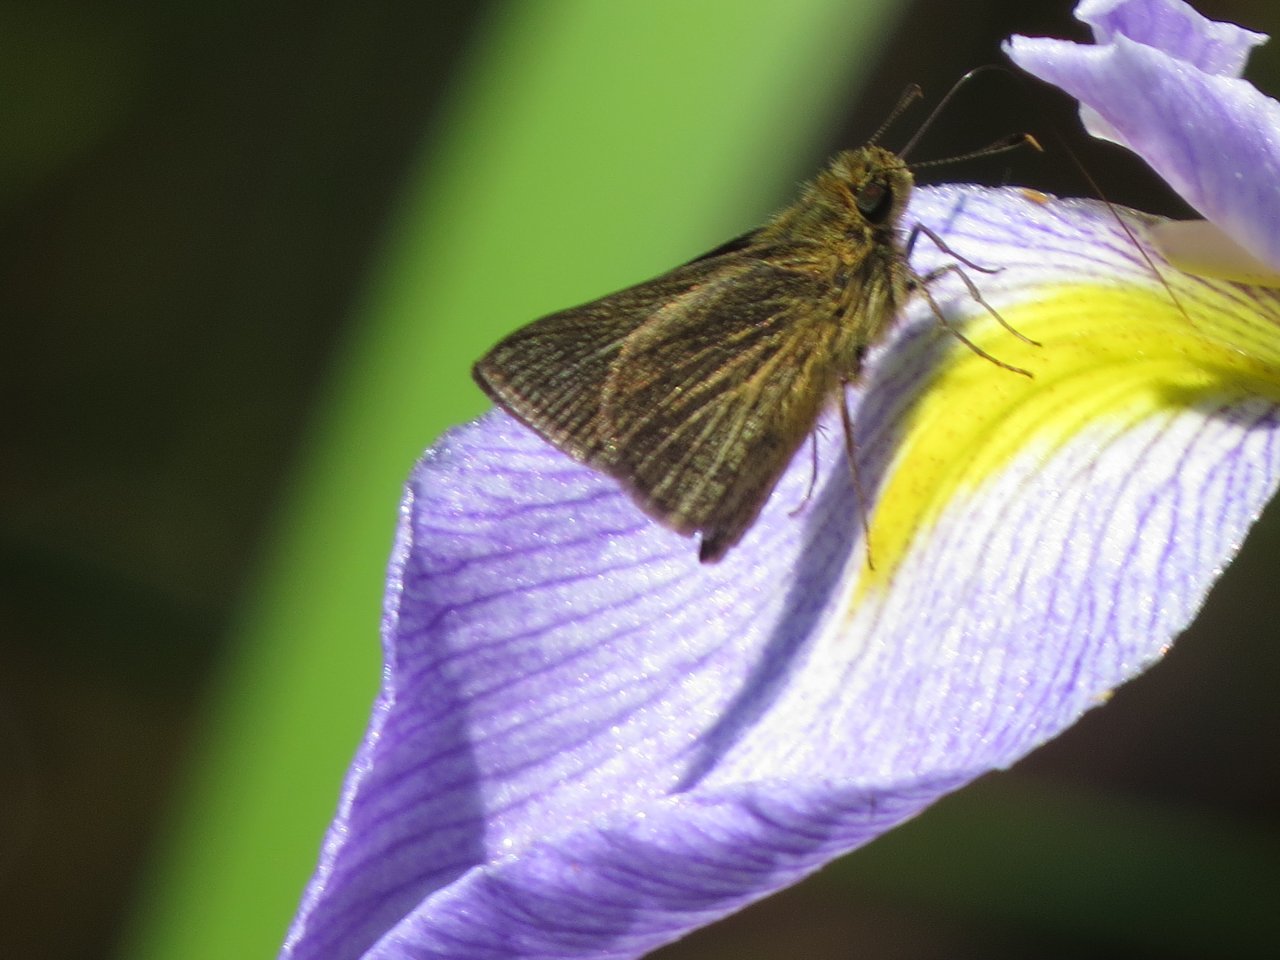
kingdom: Animalia
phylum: Arthropoda
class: Insecta
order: Lepidoptera
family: Hesperiidae
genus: Nastra
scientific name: Nastra lherminier
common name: Swarthy Skipper
